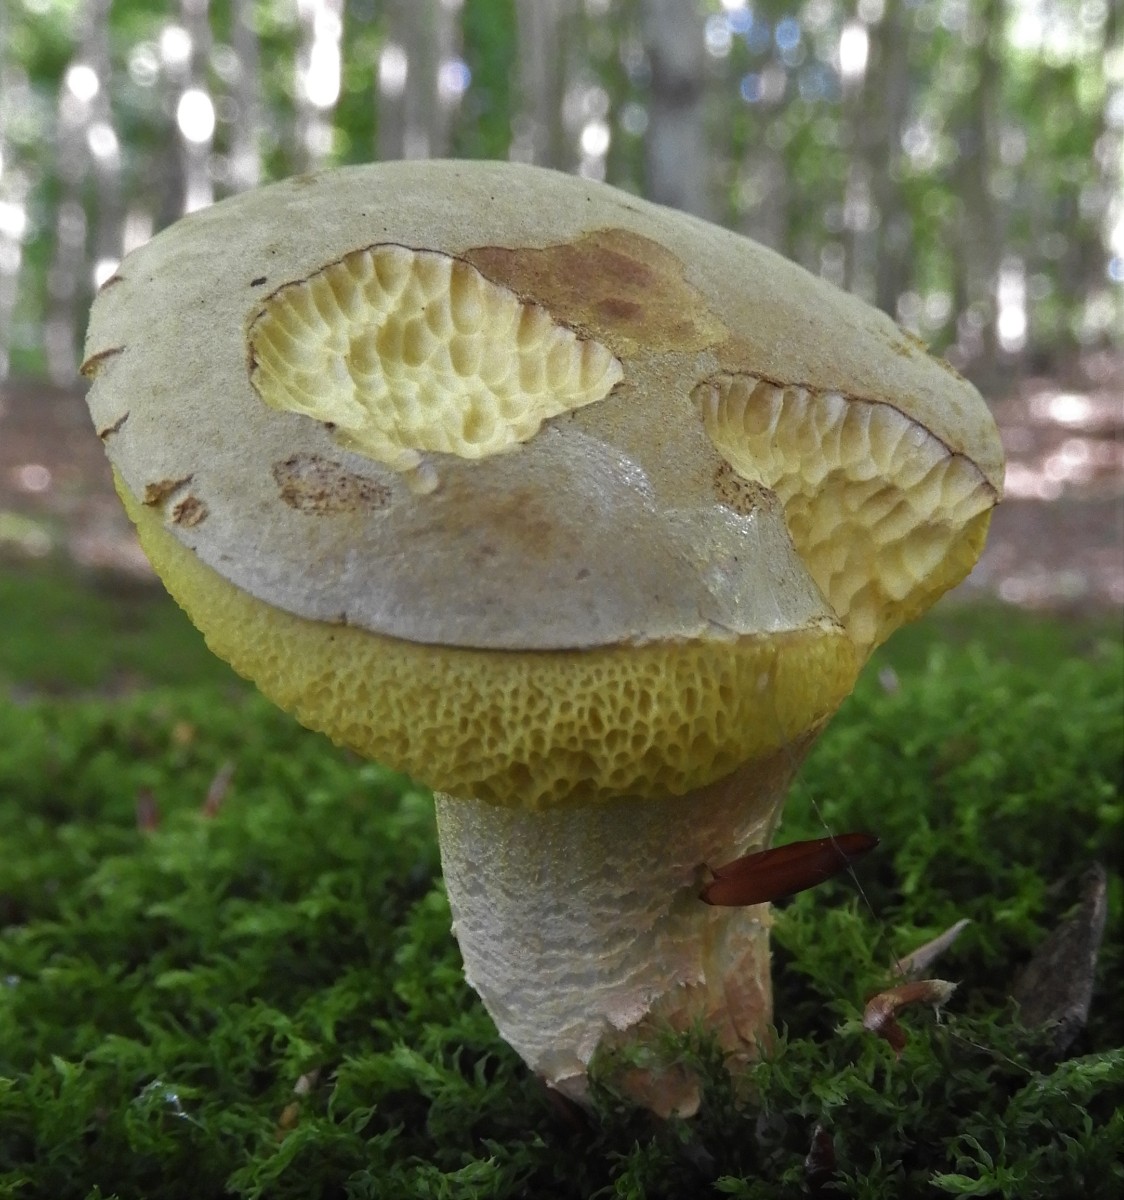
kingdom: Fungi
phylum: Basidiomycota
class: Agaricomycetes
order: Boletales
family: Boletaceae
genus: Xerocomus
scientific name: Xerocomus ferrugineus
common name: vaskeskinds-rørhat
